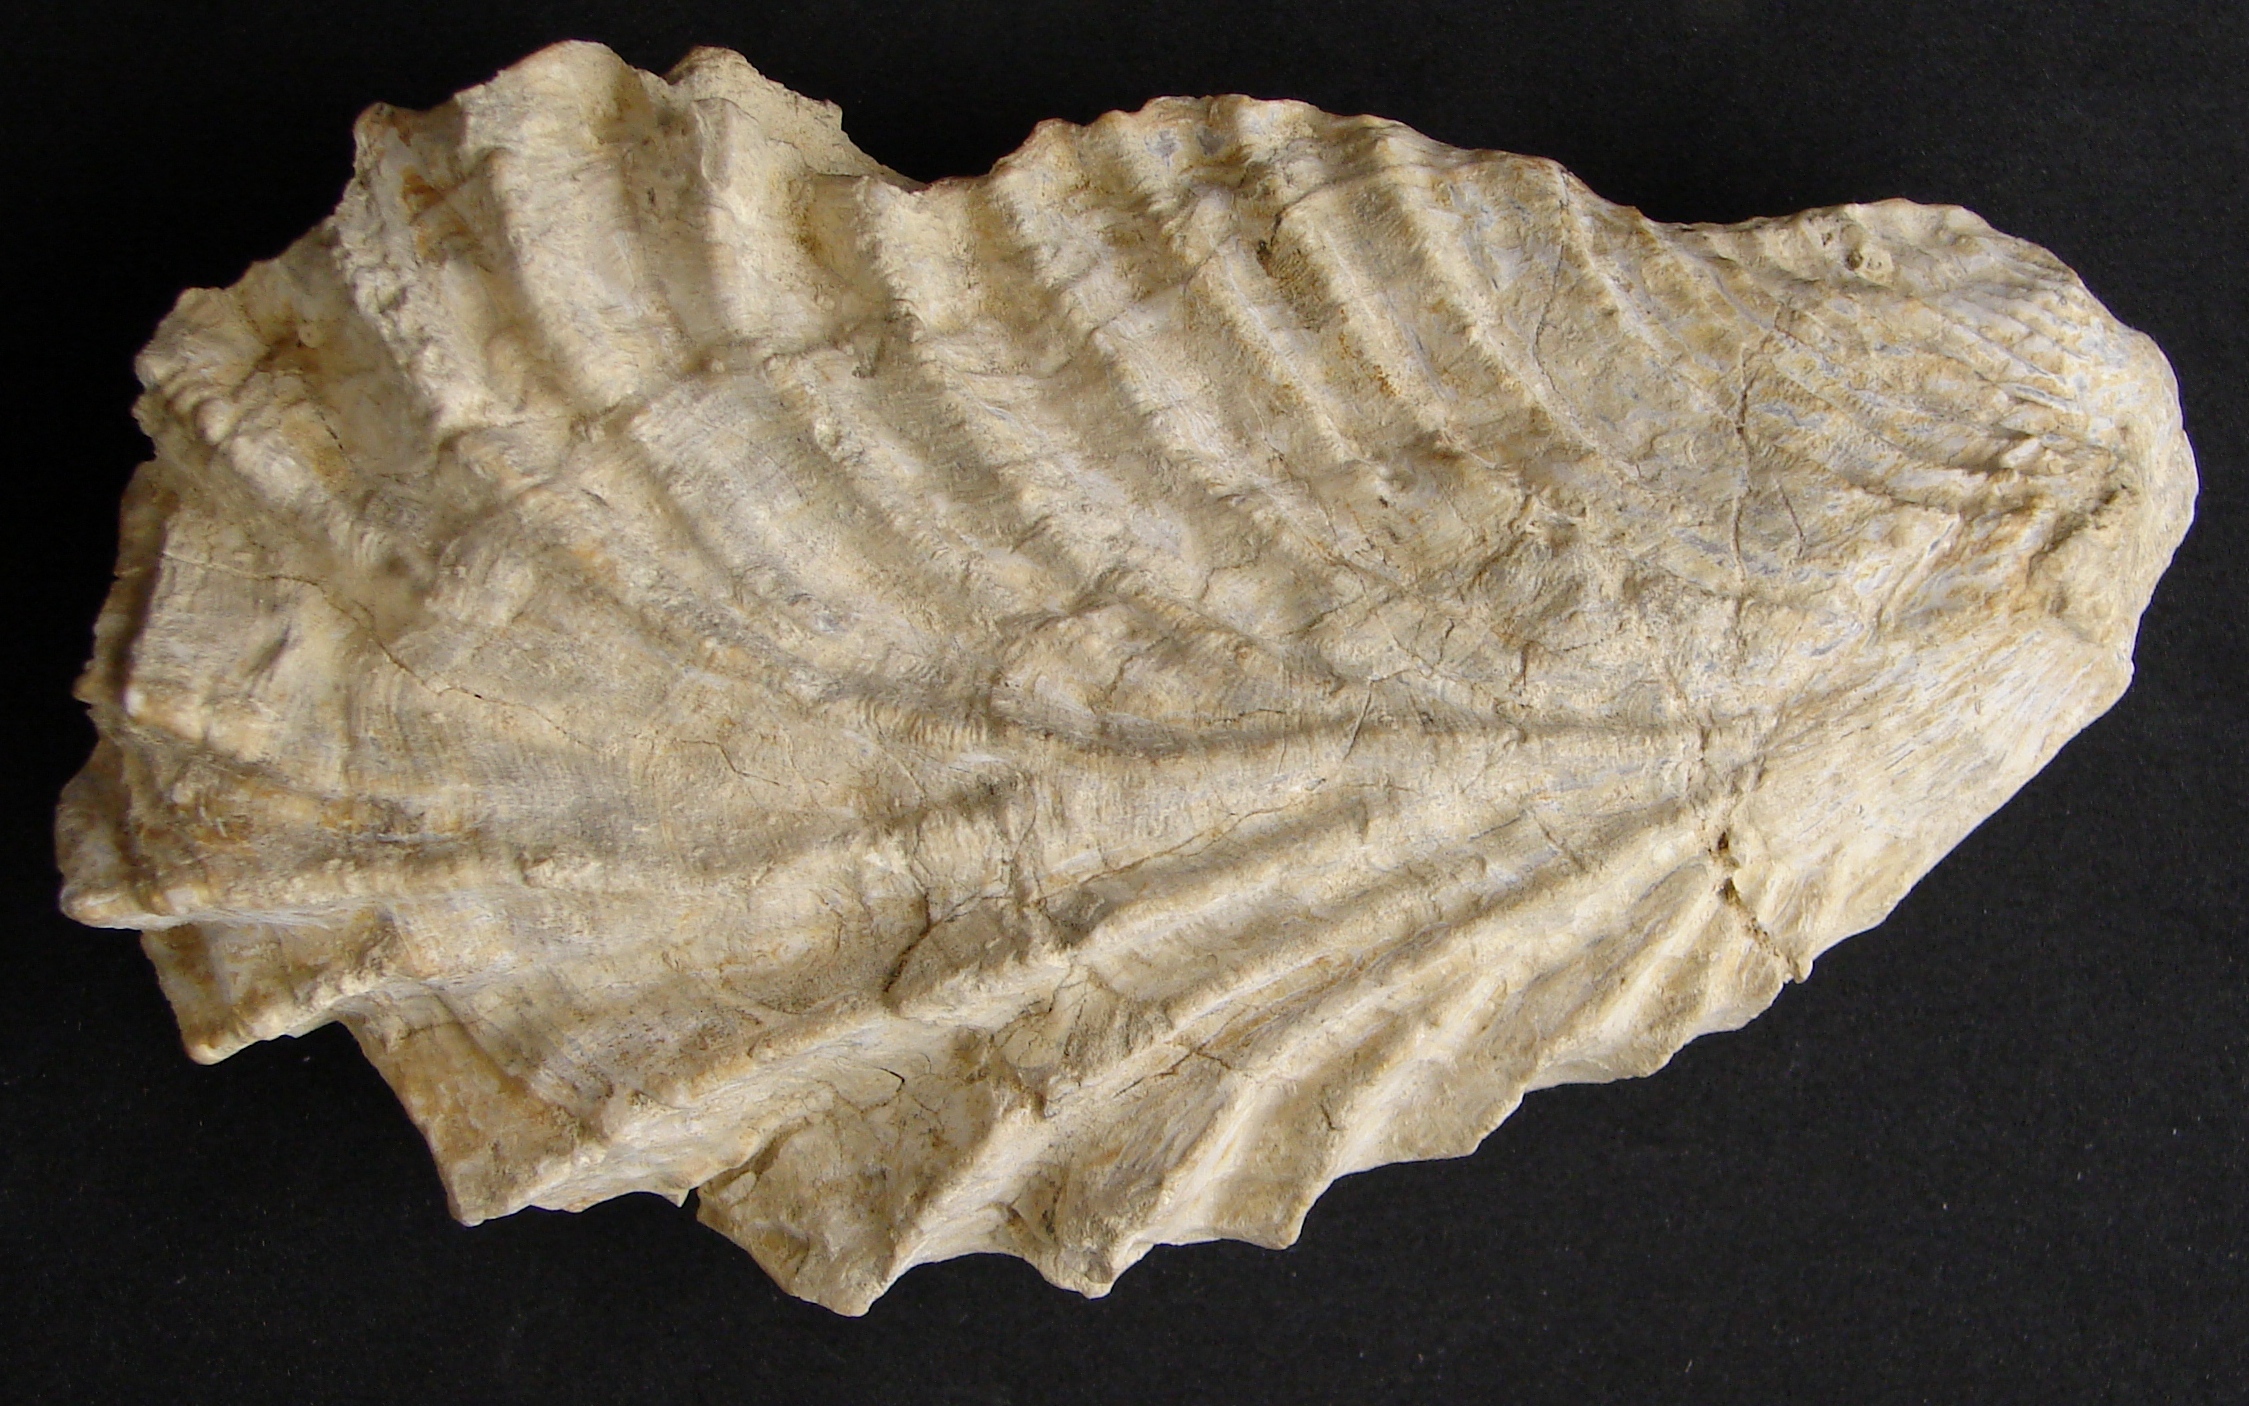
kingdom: Animalia
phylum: Mollusca
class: Bivalvia
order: Ostreida
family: Ostreidae
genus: Ostrea
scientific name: Ostrea marshii
